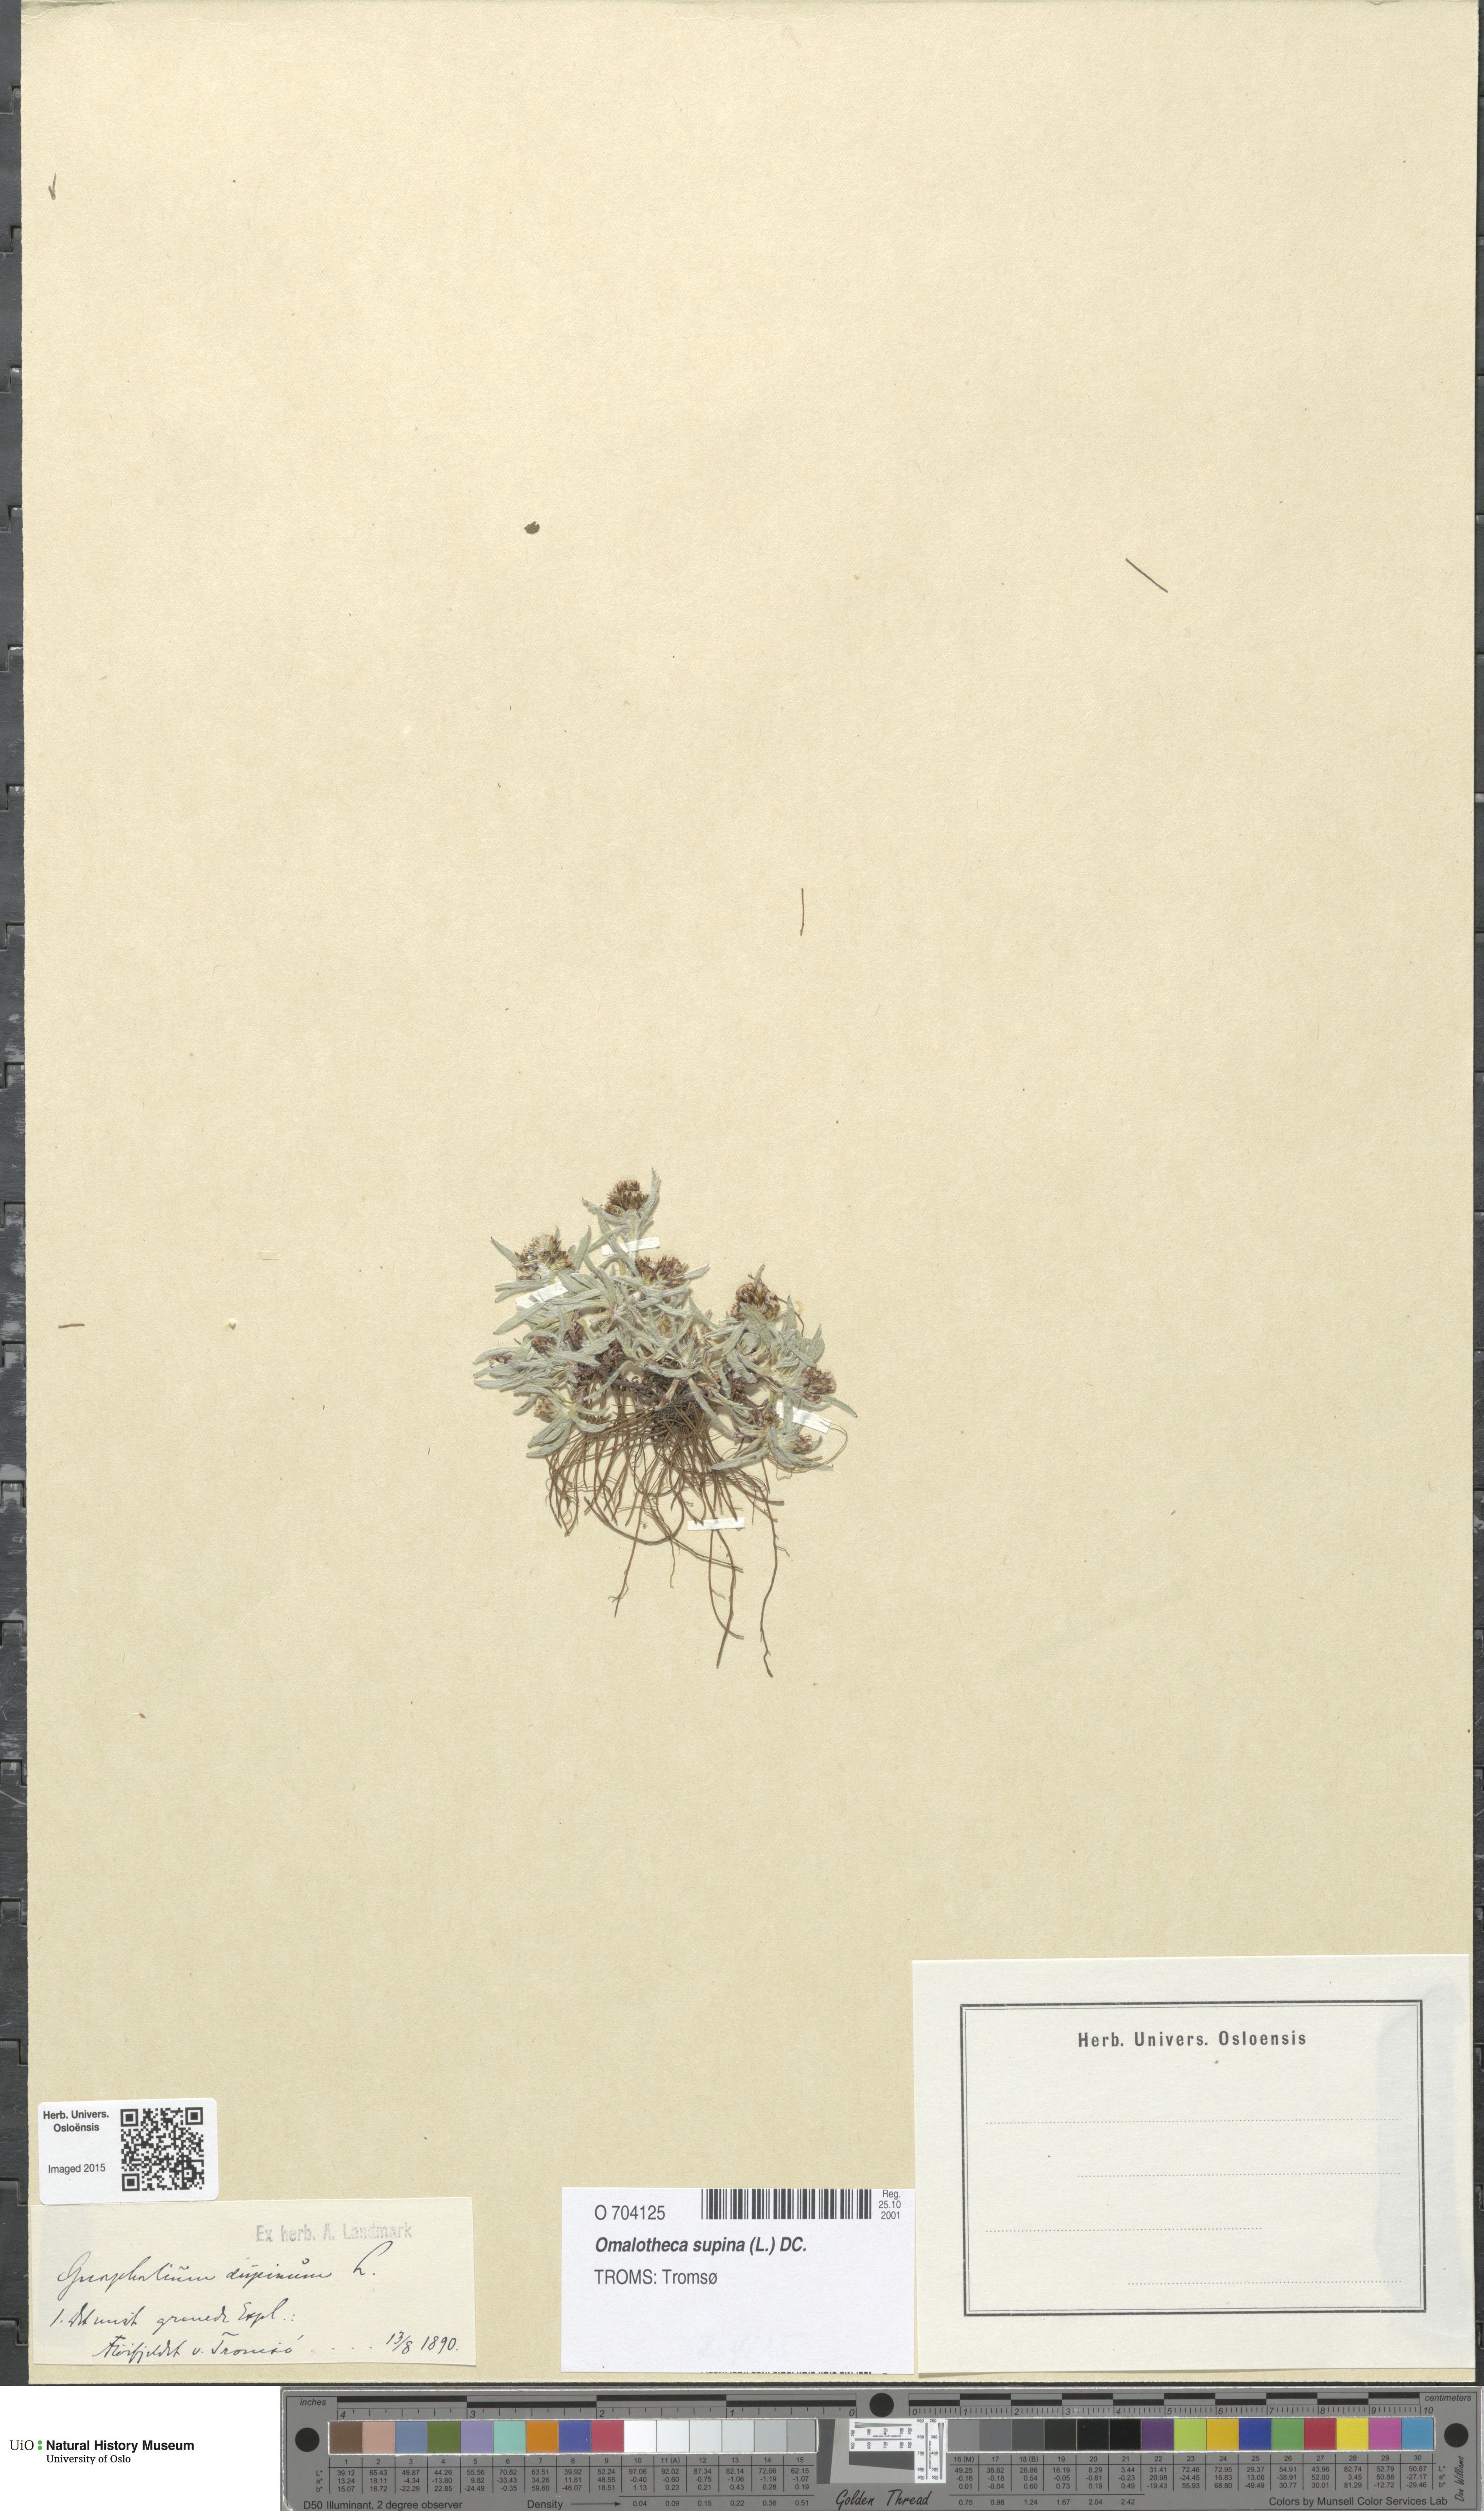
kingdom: Plantae
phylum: Tracheophyta
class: Magnoliopsida
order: Asterales
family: Asteraceae
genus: Omalotheca
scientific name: Omalotheca supina
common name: Alpine arctic-cudweed
